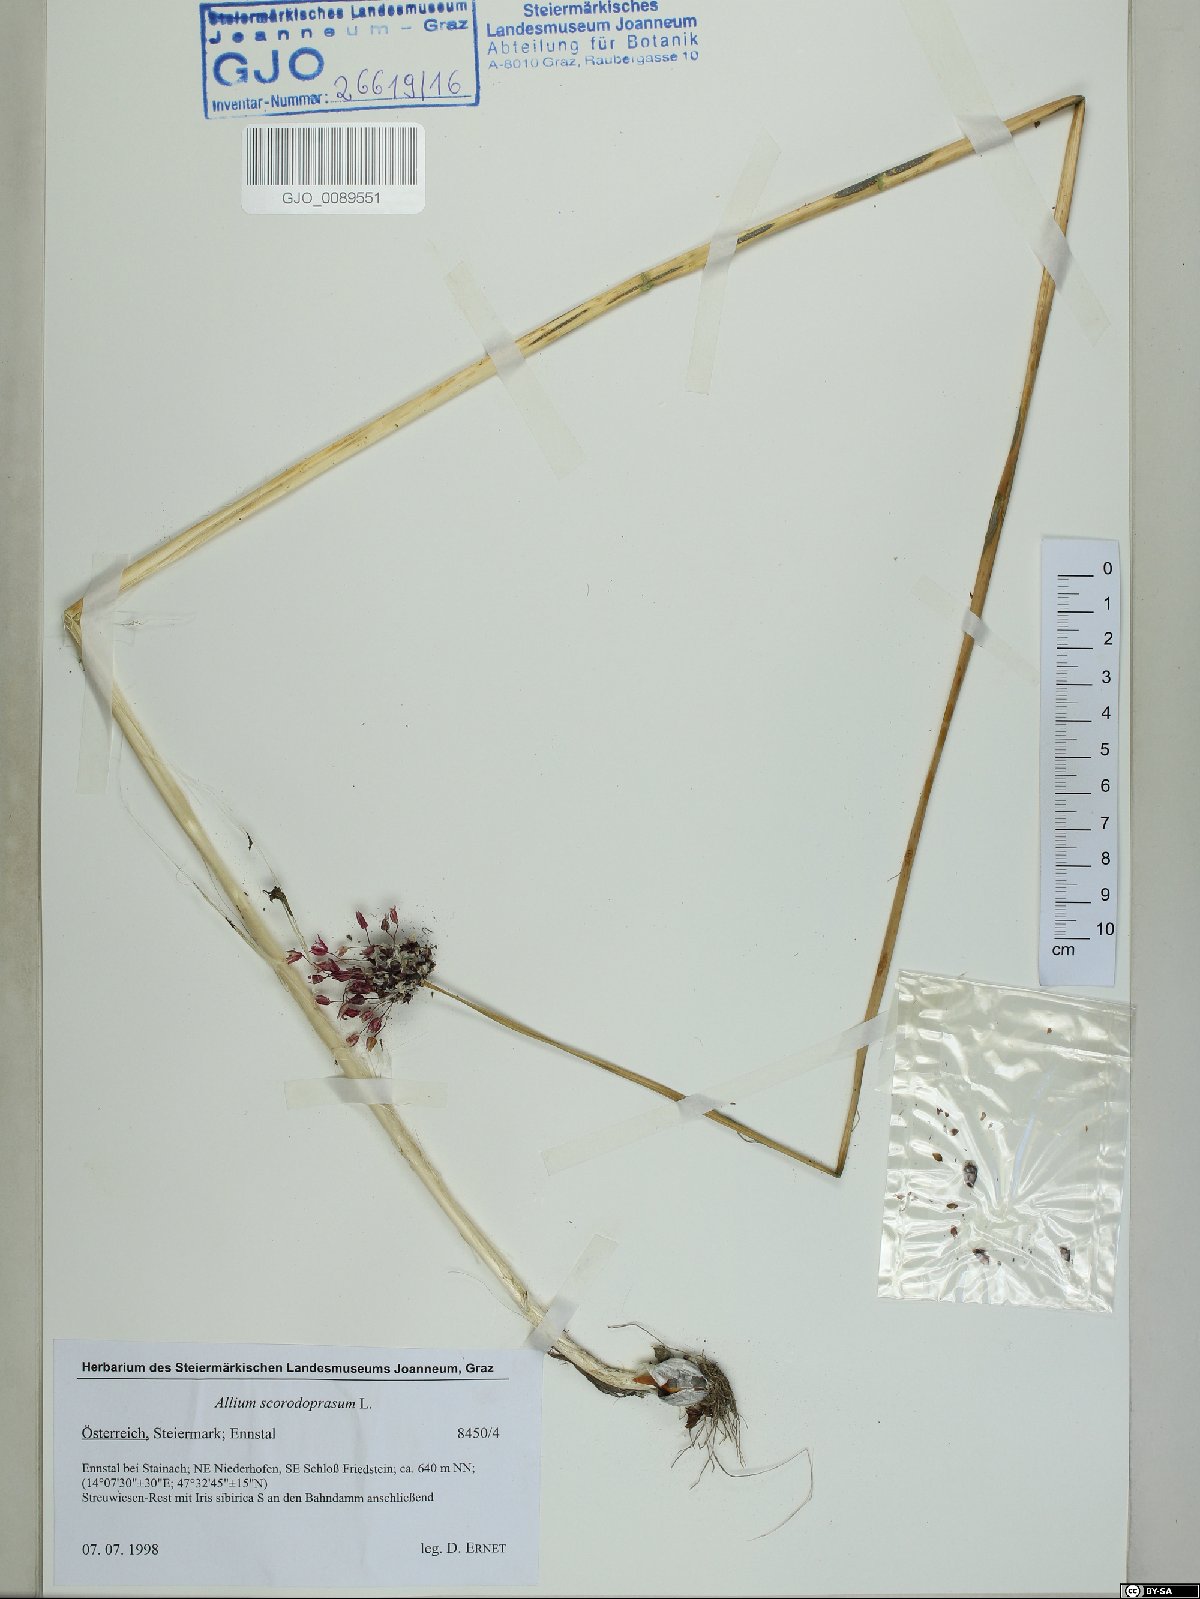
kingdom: Plantae
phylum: Tracheophyta
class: Liliopsida
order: Asparagales
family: Amaryllidaceae
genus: Allium
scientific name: Allium scorodoprasum
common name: Sand leek
